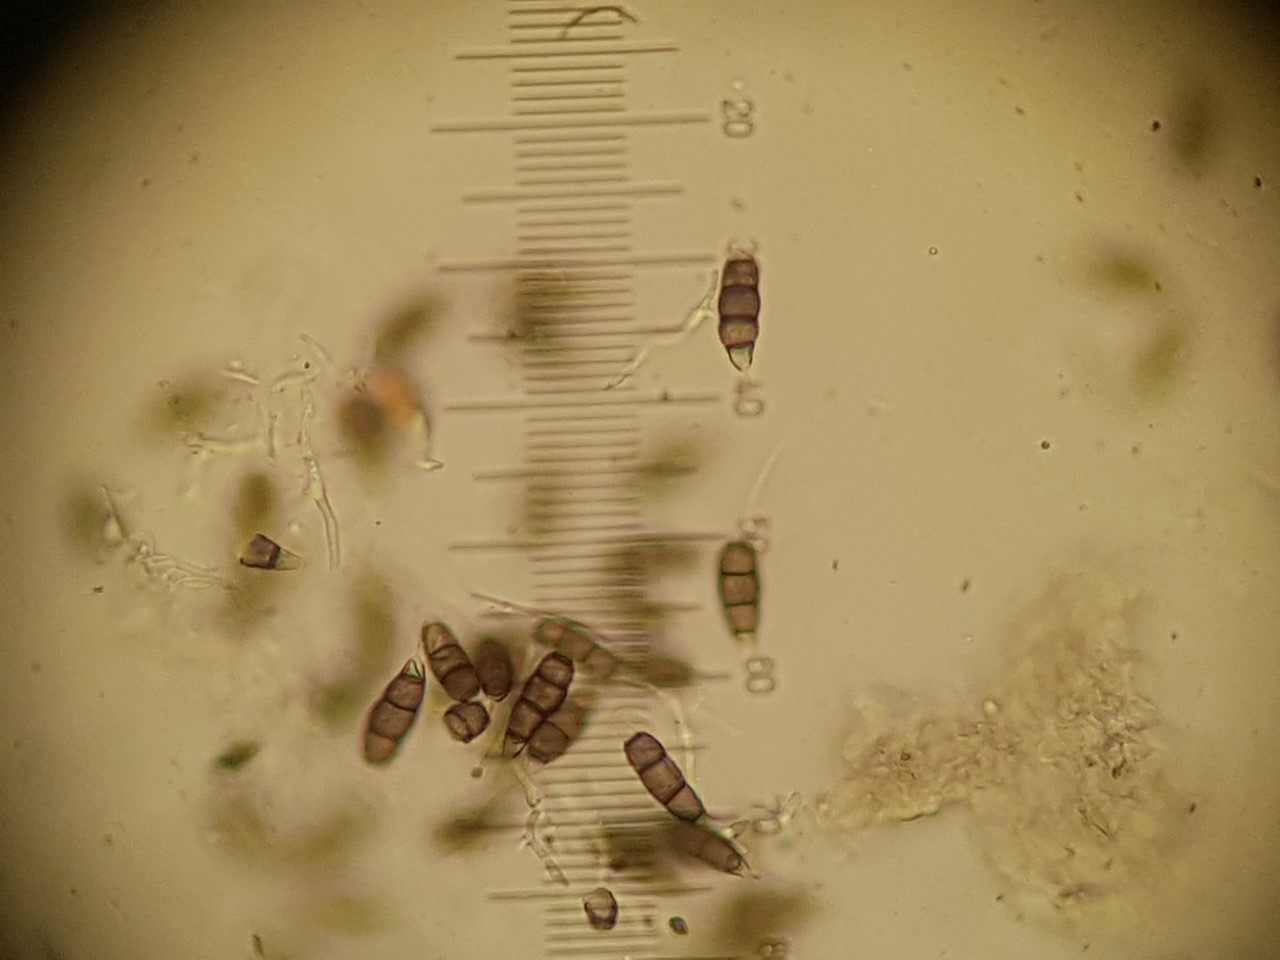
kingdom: Fungi
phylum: Ascomycota
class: Sordariomycetes
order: Amphisphaeriales
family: Pestalotiopsidaceae
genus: Pestalotiopsis
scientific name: Pestalotiopsis funerea
